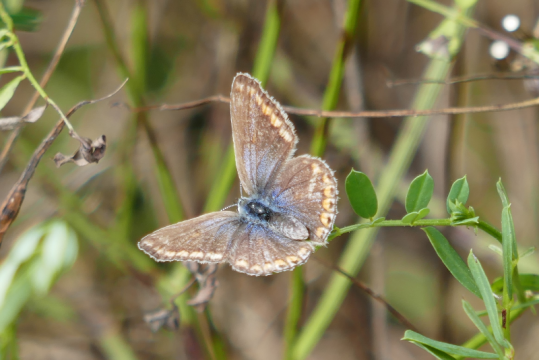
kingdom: Animalia
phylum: Arthropoda
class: Insecta
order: Lepidoptera
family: Lycaenidae
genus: Polyommatus
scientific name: Polyommatus icarus
